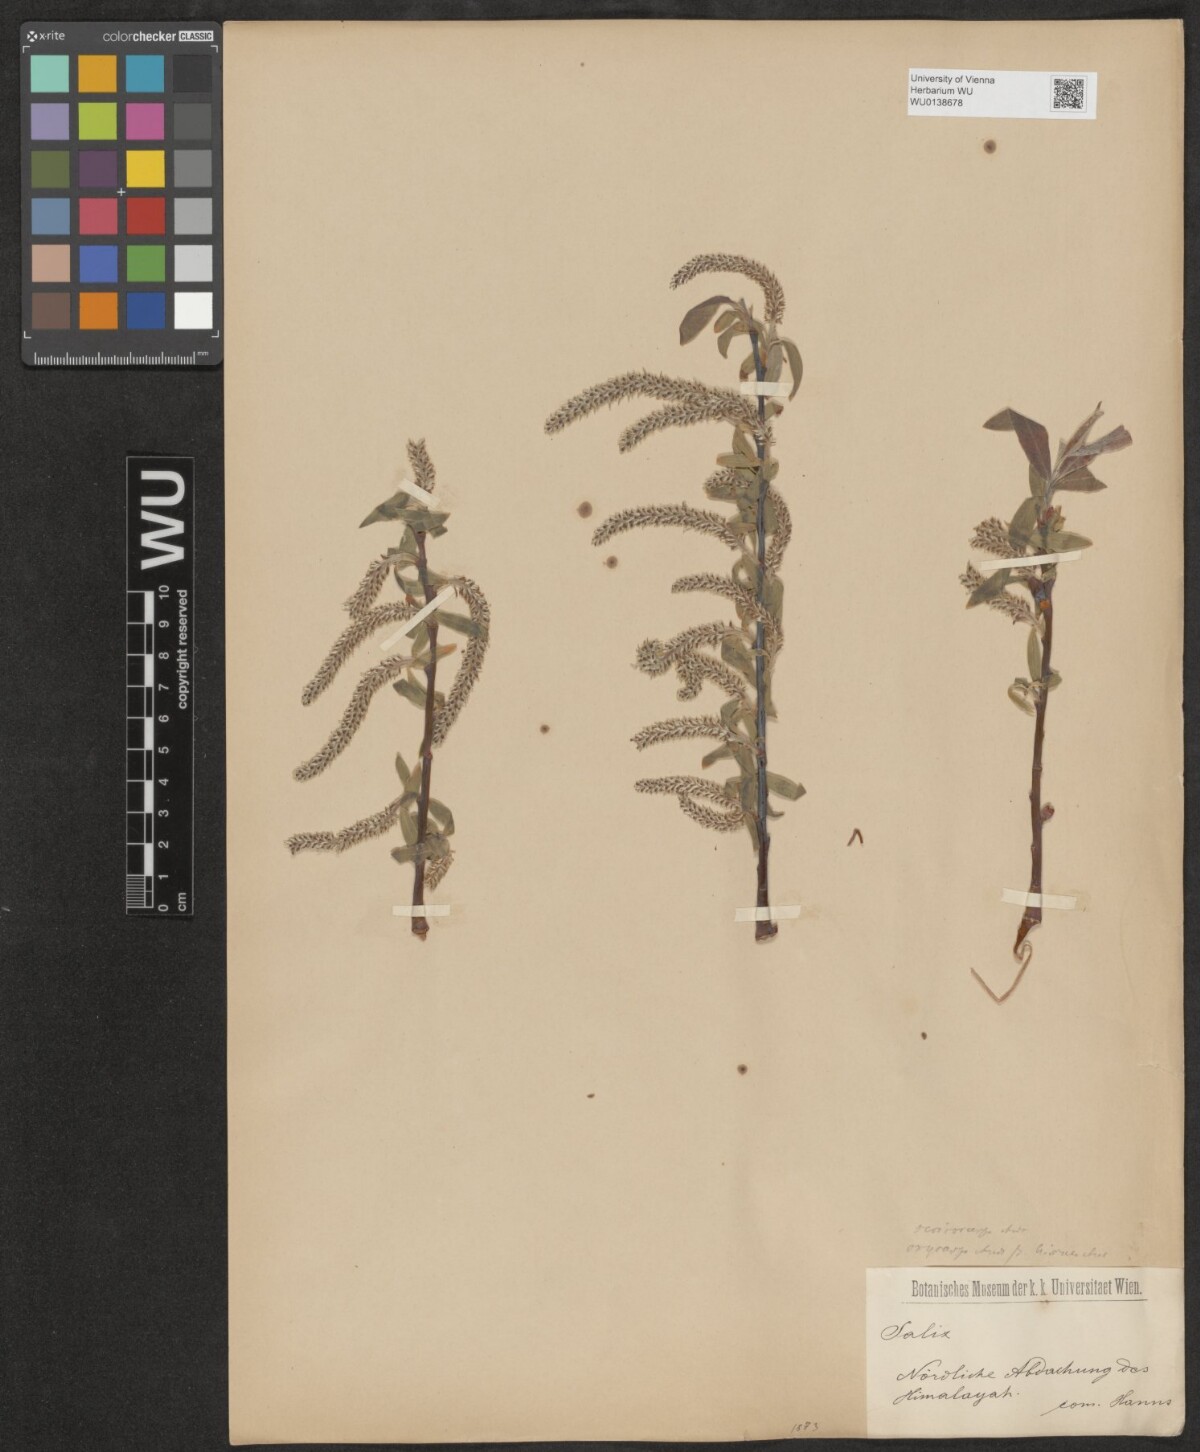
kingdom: Plantae
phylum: Tracheophyta
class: Magnoliopsida
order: Malpighiales
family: Salicaceae
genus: Salix
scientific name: Salix sericocarpa
